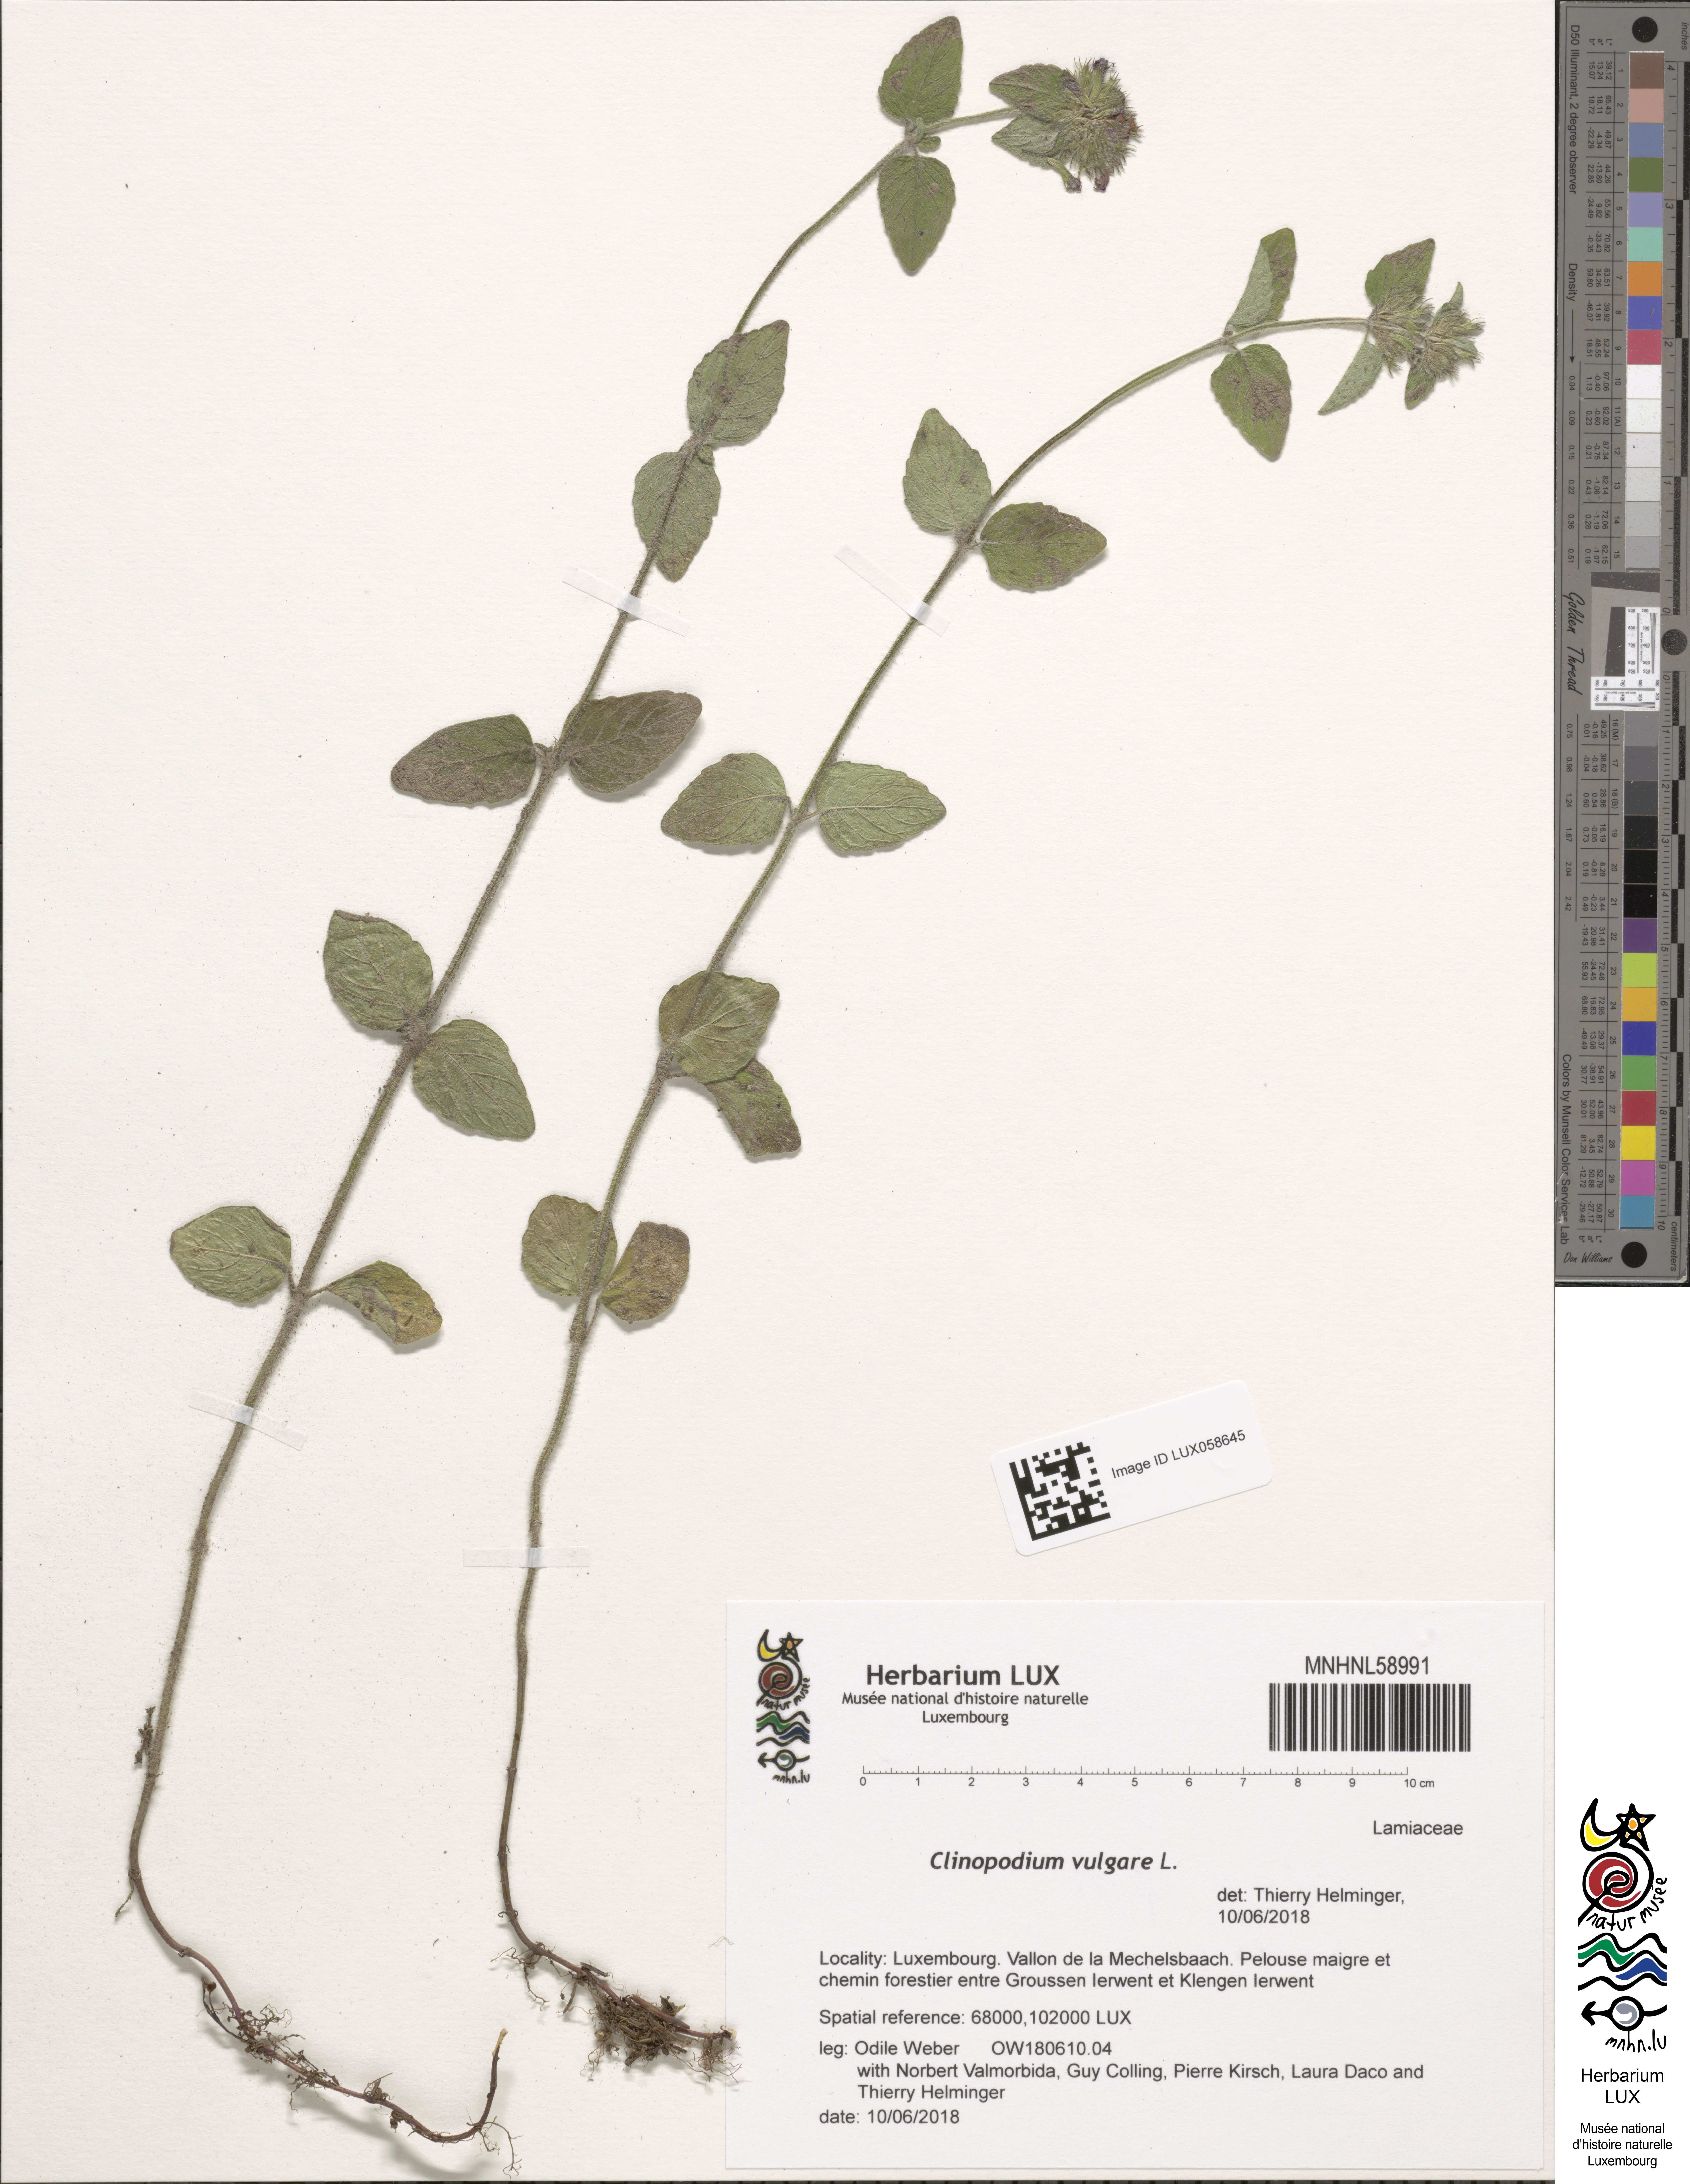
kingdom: Plantae
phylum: Tracheophyta
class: Magnoliopsida
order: Lamiales
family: Lamiaceae
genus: Clinopodium
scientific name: Clinopodium vulgare
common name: Wild basil
